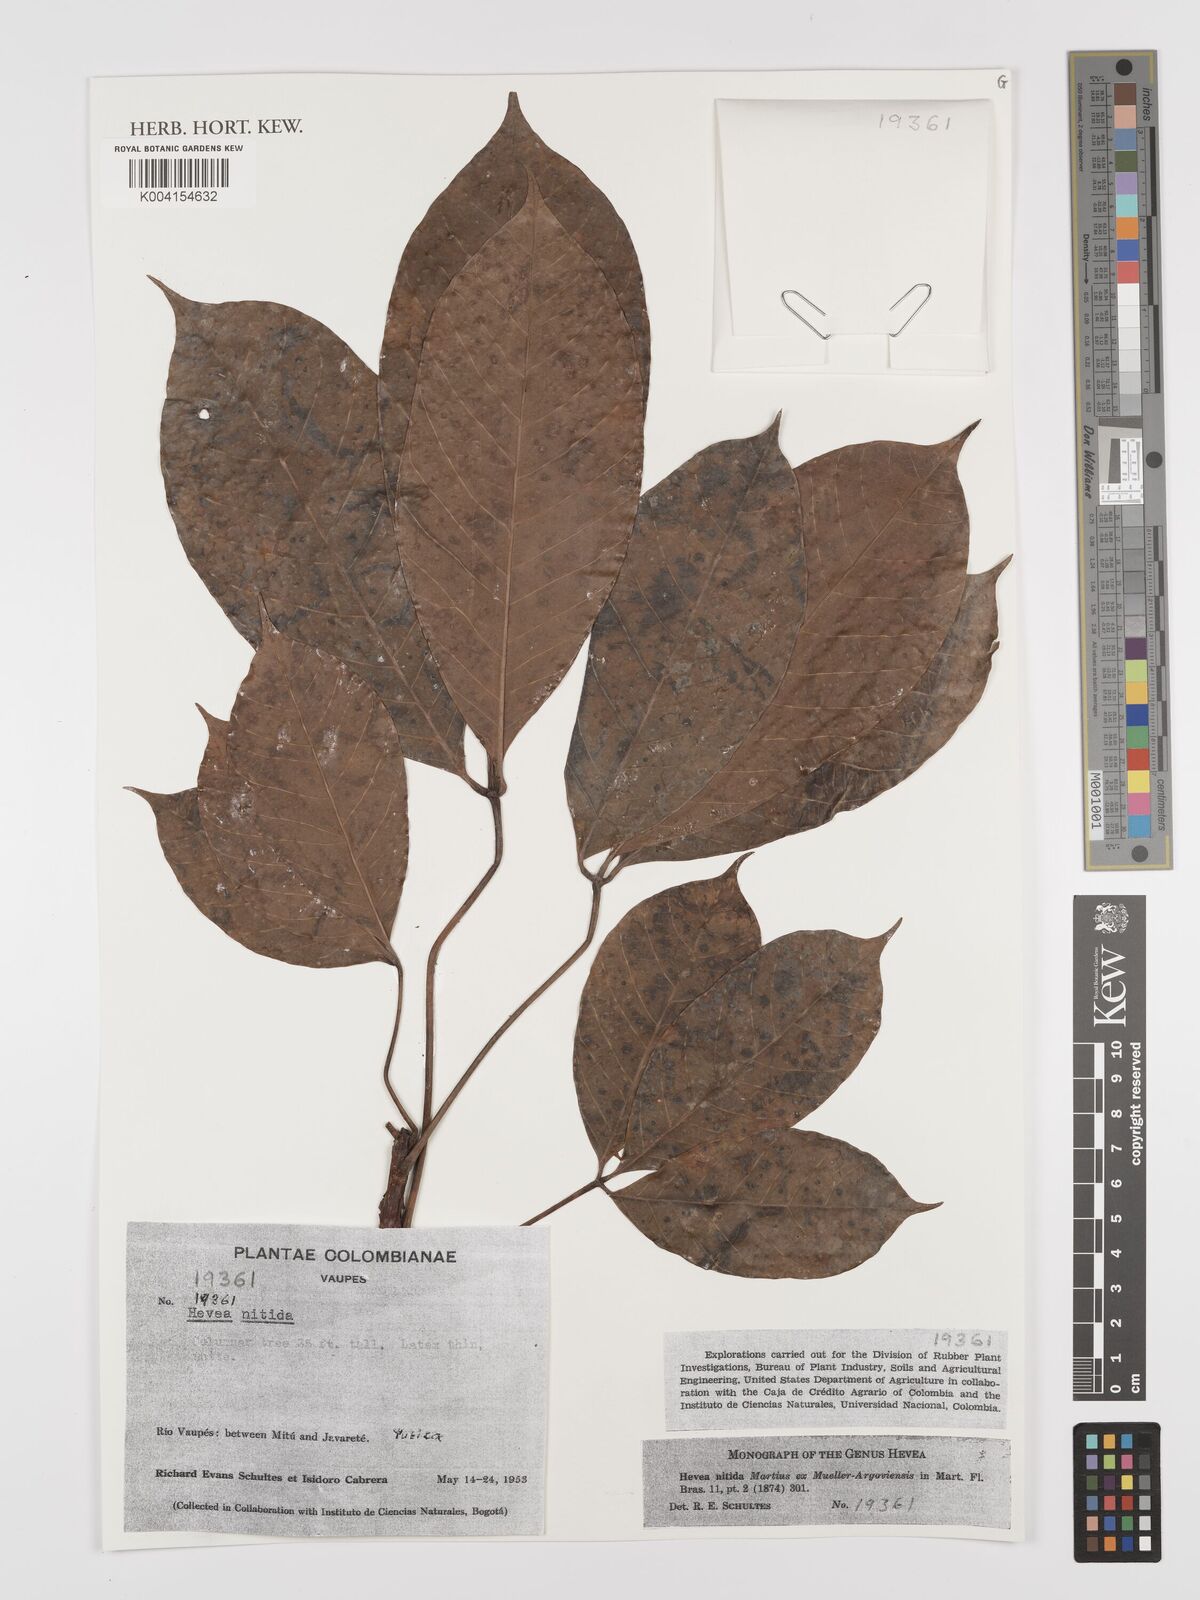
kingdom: Plantae
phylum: Tracheophyta
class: Magnoliopsida
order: Malpighiales
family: Euphorbiaceae
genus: Hevea
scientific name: Hevea nitida
